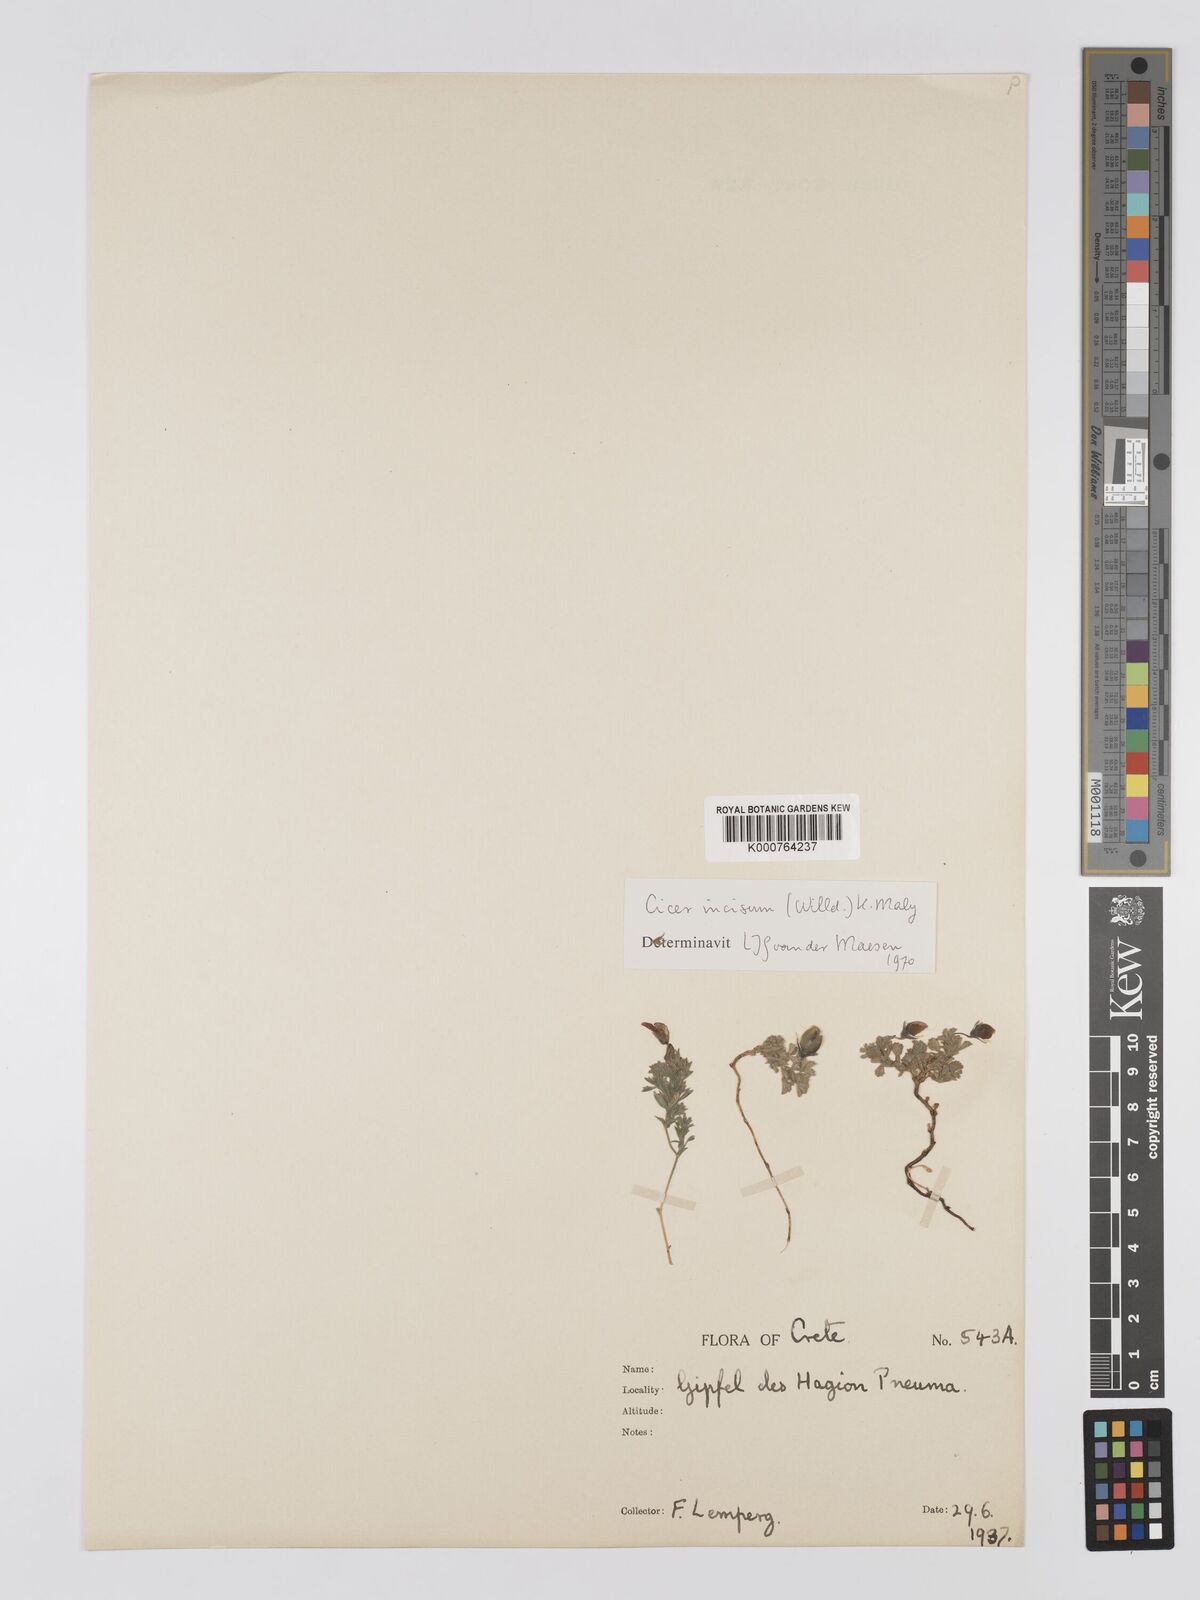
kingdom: Plantae
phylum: Tracheophyta
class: Magnoliopsida
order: Fabales
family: Fabaceae
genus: Cicer
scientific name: Cicer incisum
